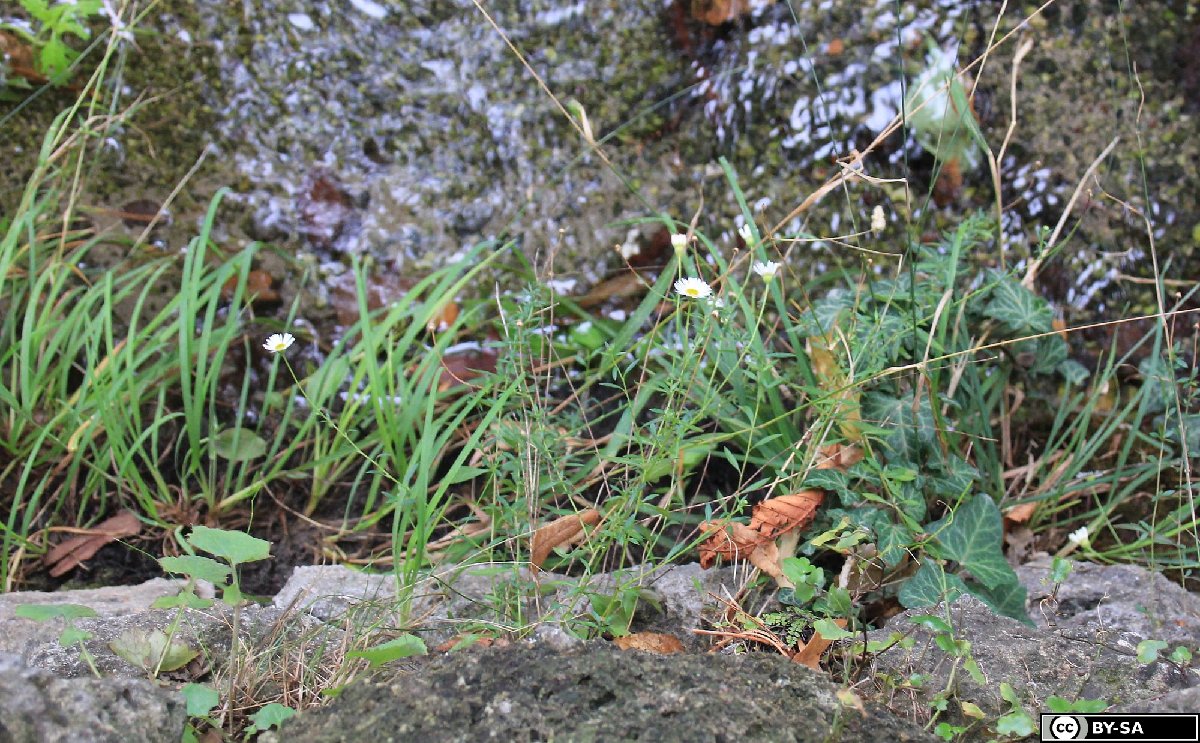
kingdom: Plantae
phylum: Tracheophyta
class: Magnoliopsida
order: Asterales
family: Asteraceae
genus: Erigeron
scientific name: Erigeron karvinskianus
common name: Mexican fleabane
